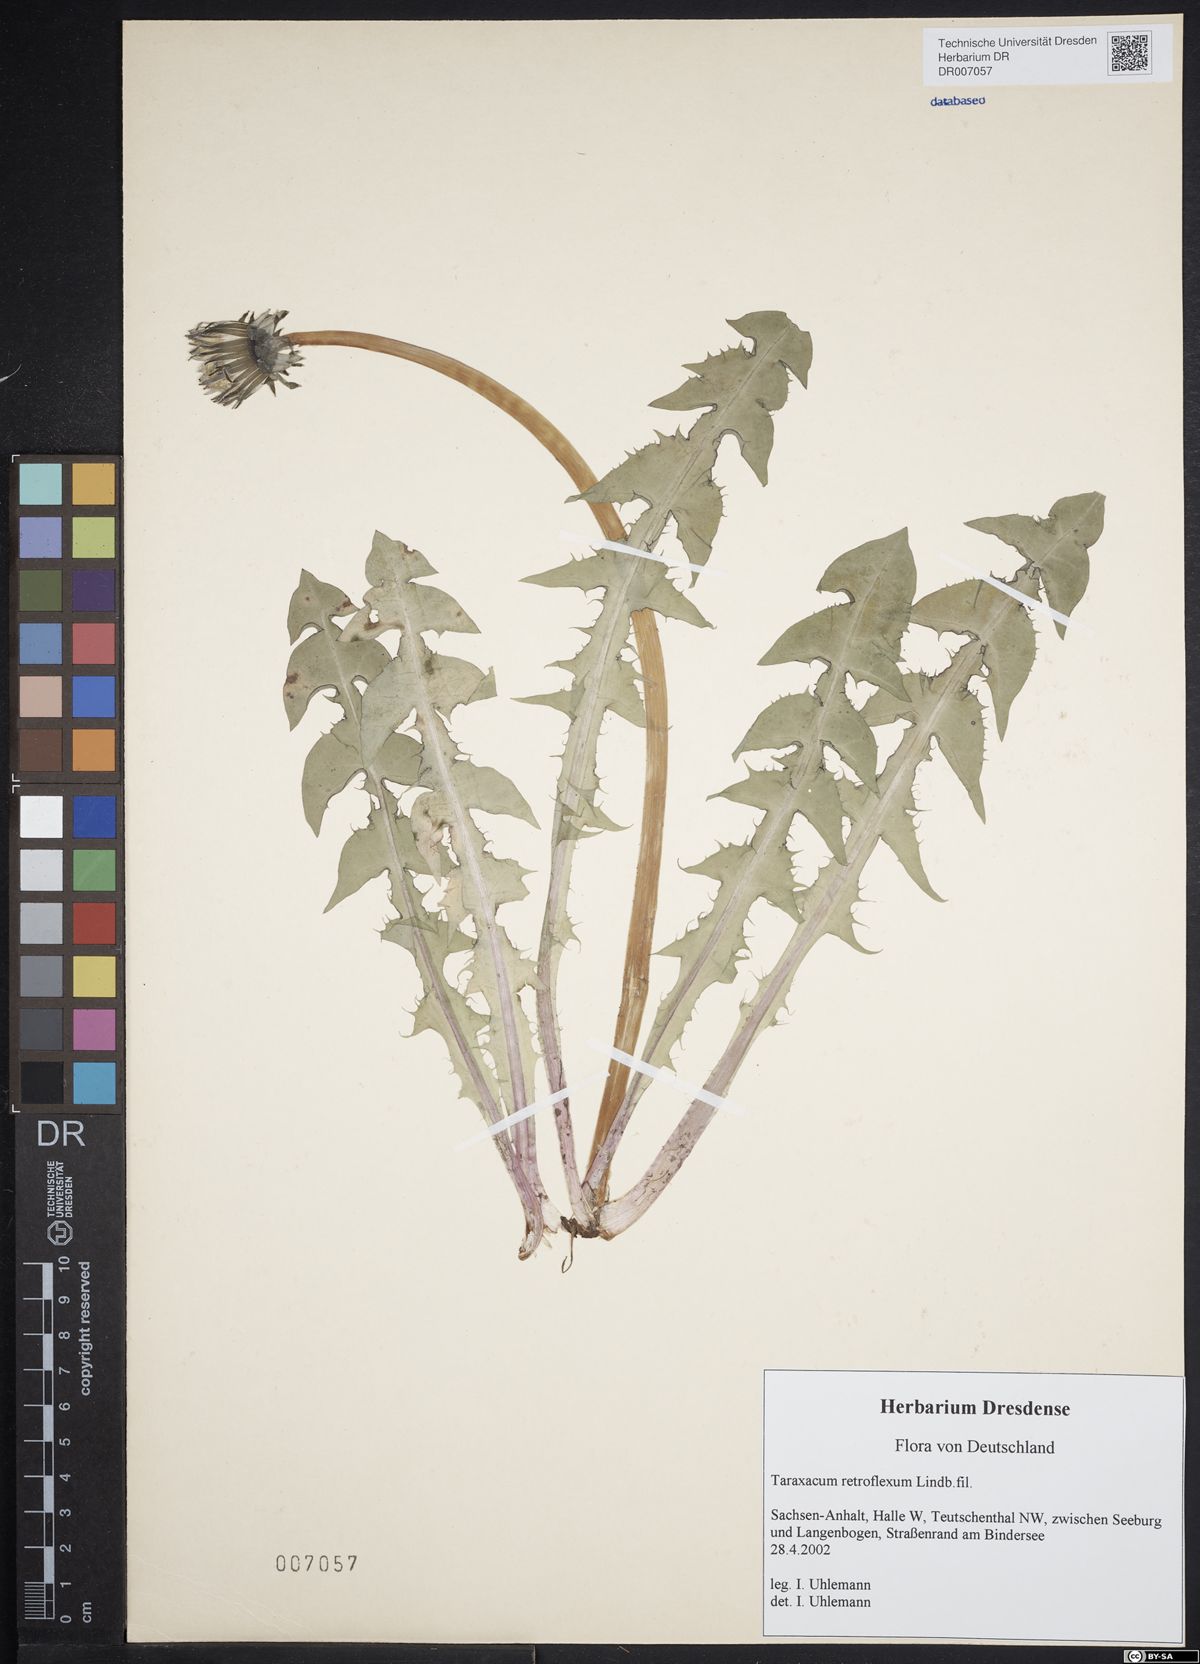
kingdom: Plantae
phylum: Tracheophyta
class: Magnoliopsida
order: Asterales
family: Asteraceae
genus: Taraxacum
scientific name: Taraxacum retroflexum
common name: Reflexed-lobed dandelion
